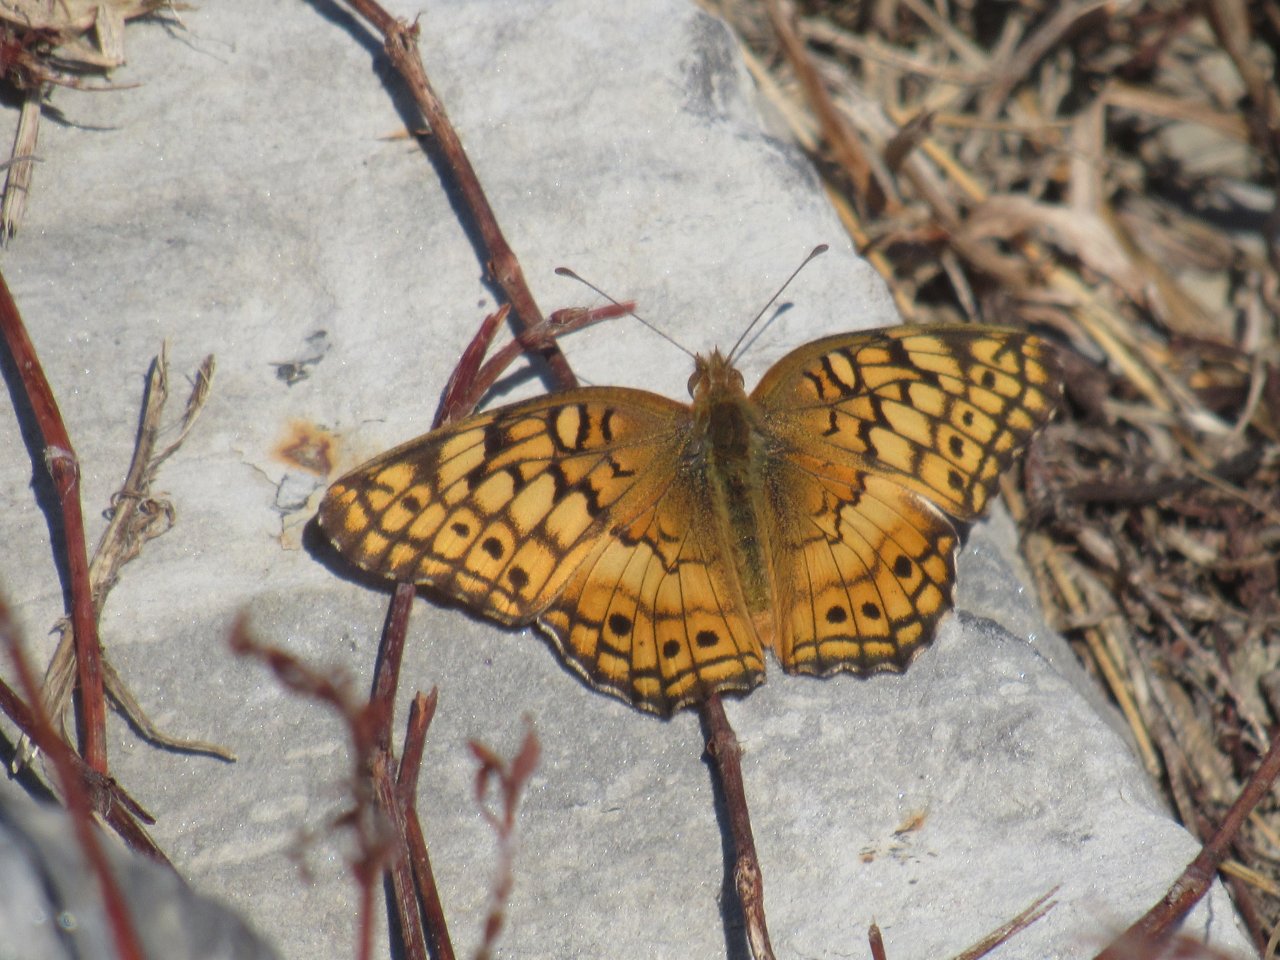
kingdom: Animalia
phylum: Arthropoda
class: Insecta
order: Lepidoptera
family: Nymphalidae
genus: Euptoieta
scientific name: Euptoieta claudia
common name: Variegated Fritillary
